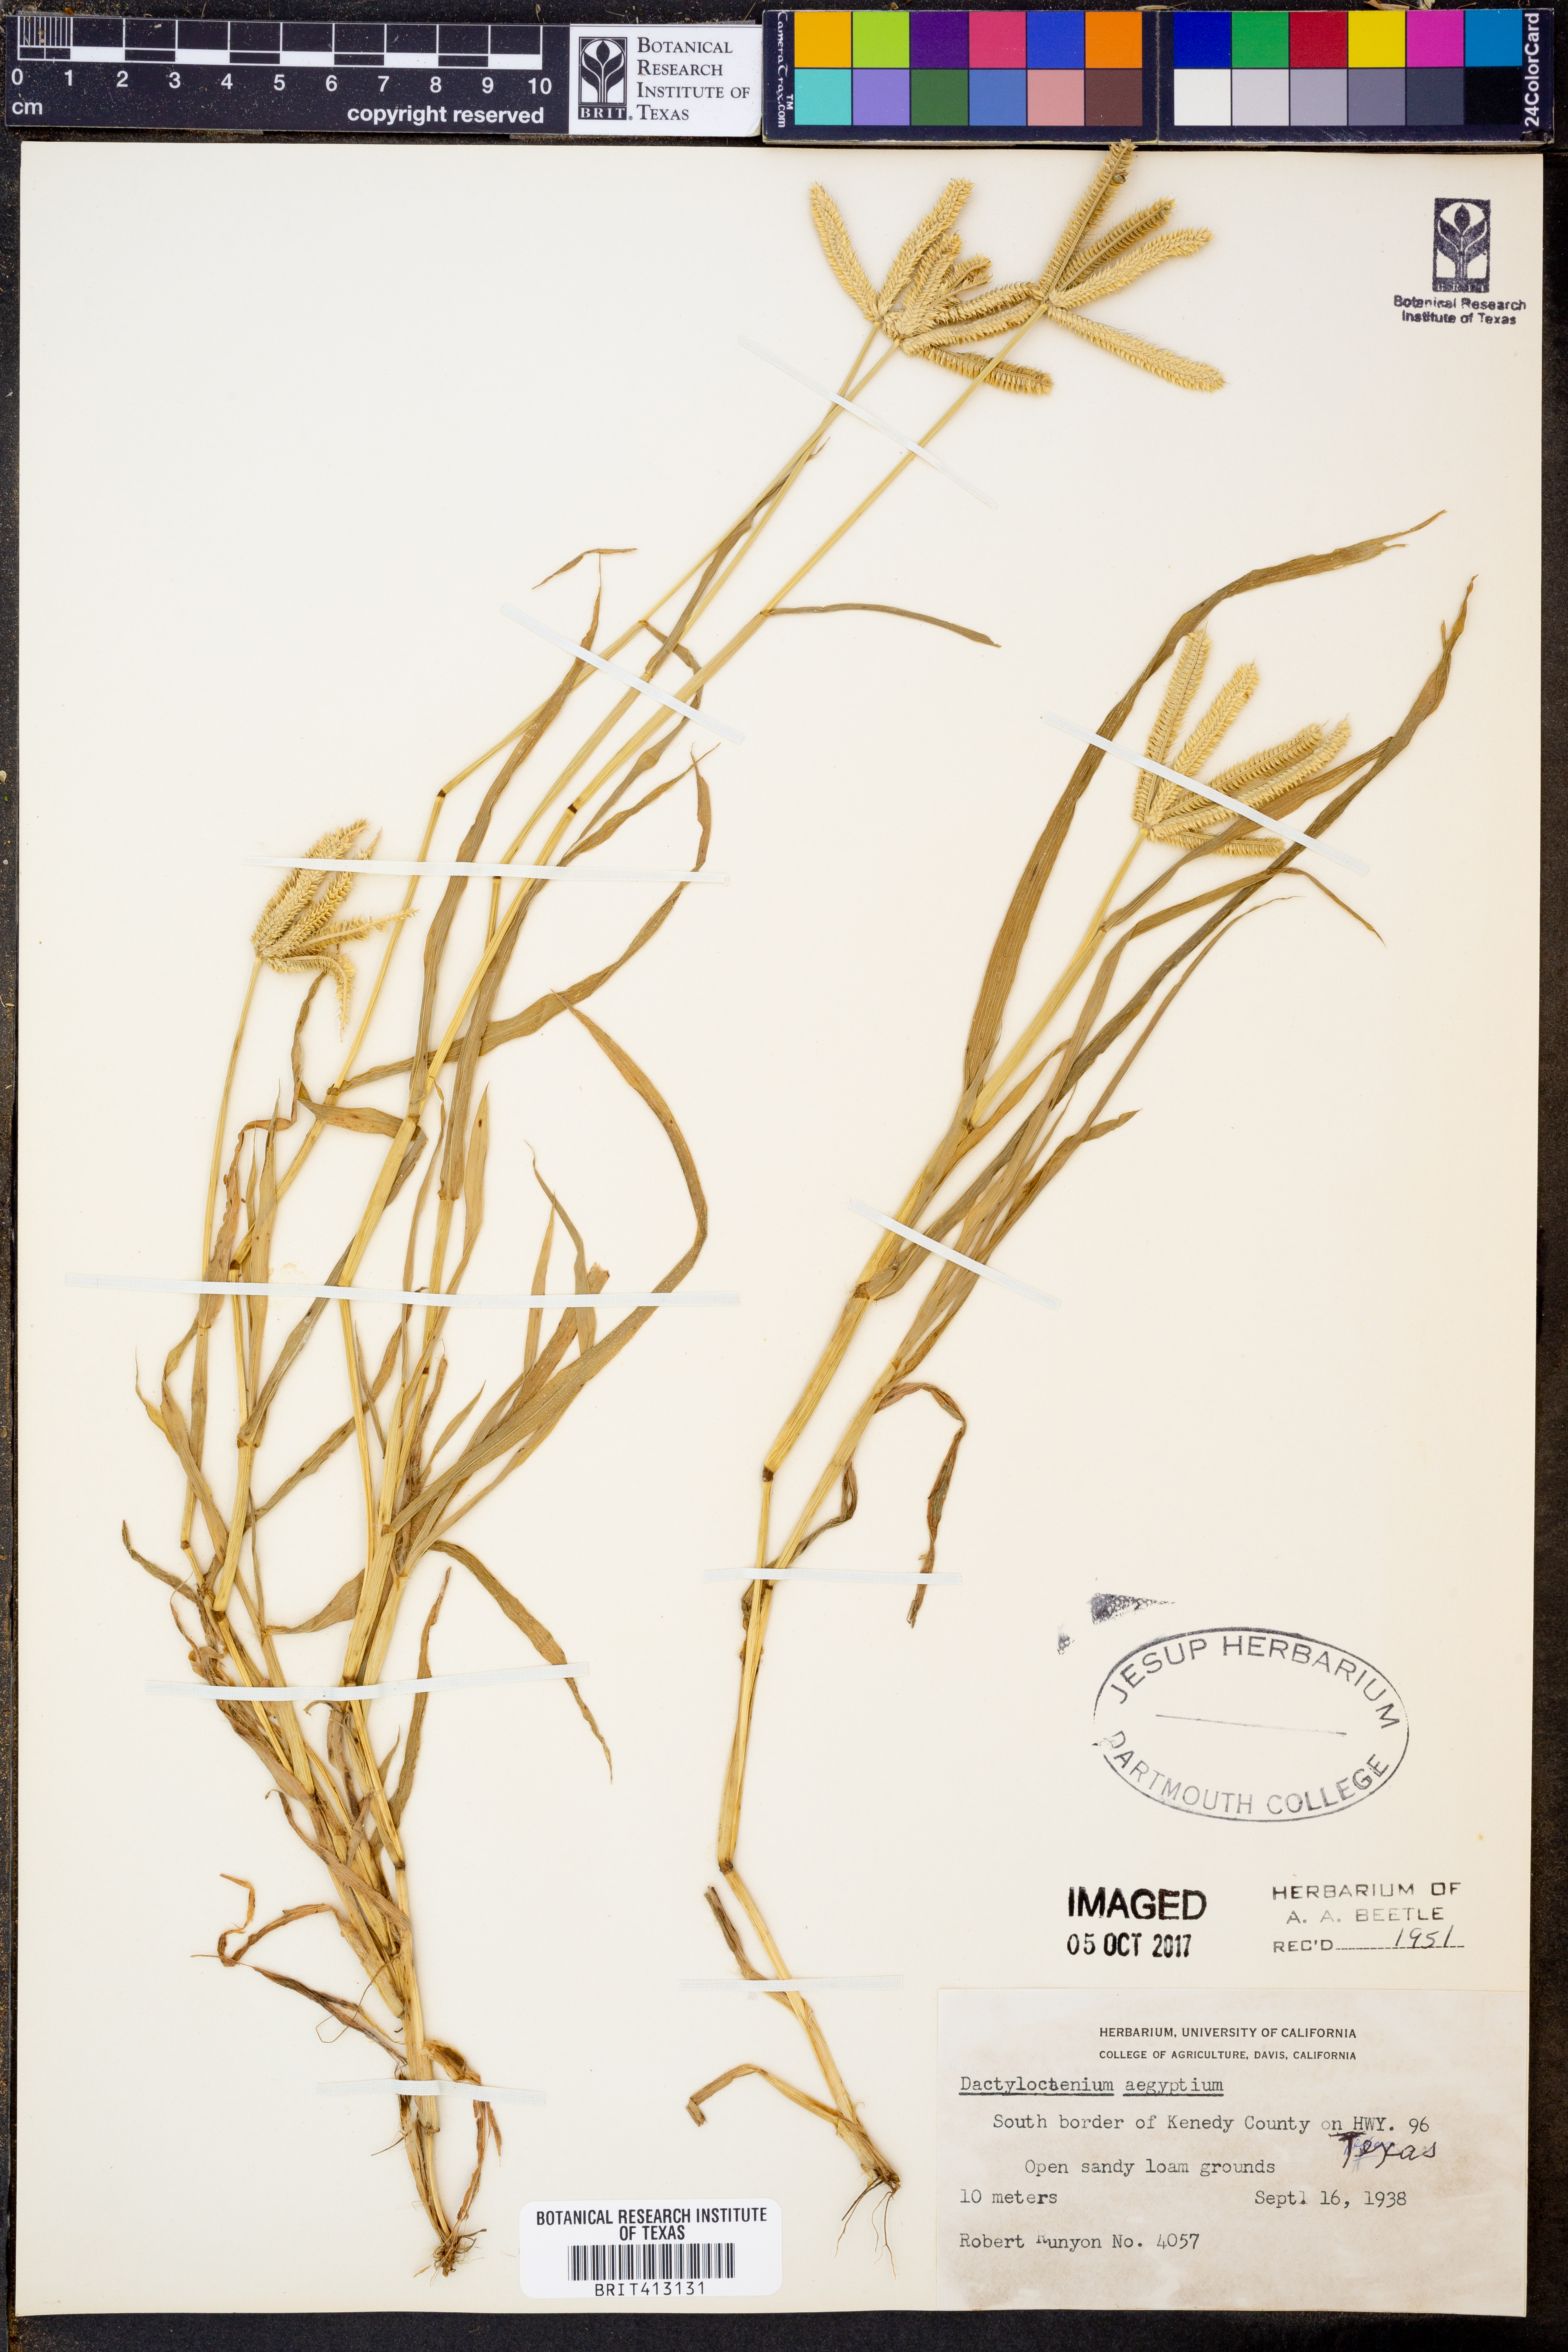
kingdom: Plantae
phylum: Tracheophyta
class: Liliopsida
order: Poales
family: Poaceae
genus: Dactyloctenium
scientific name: Dactyloctenium aegyptium
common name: Egyptian grass
